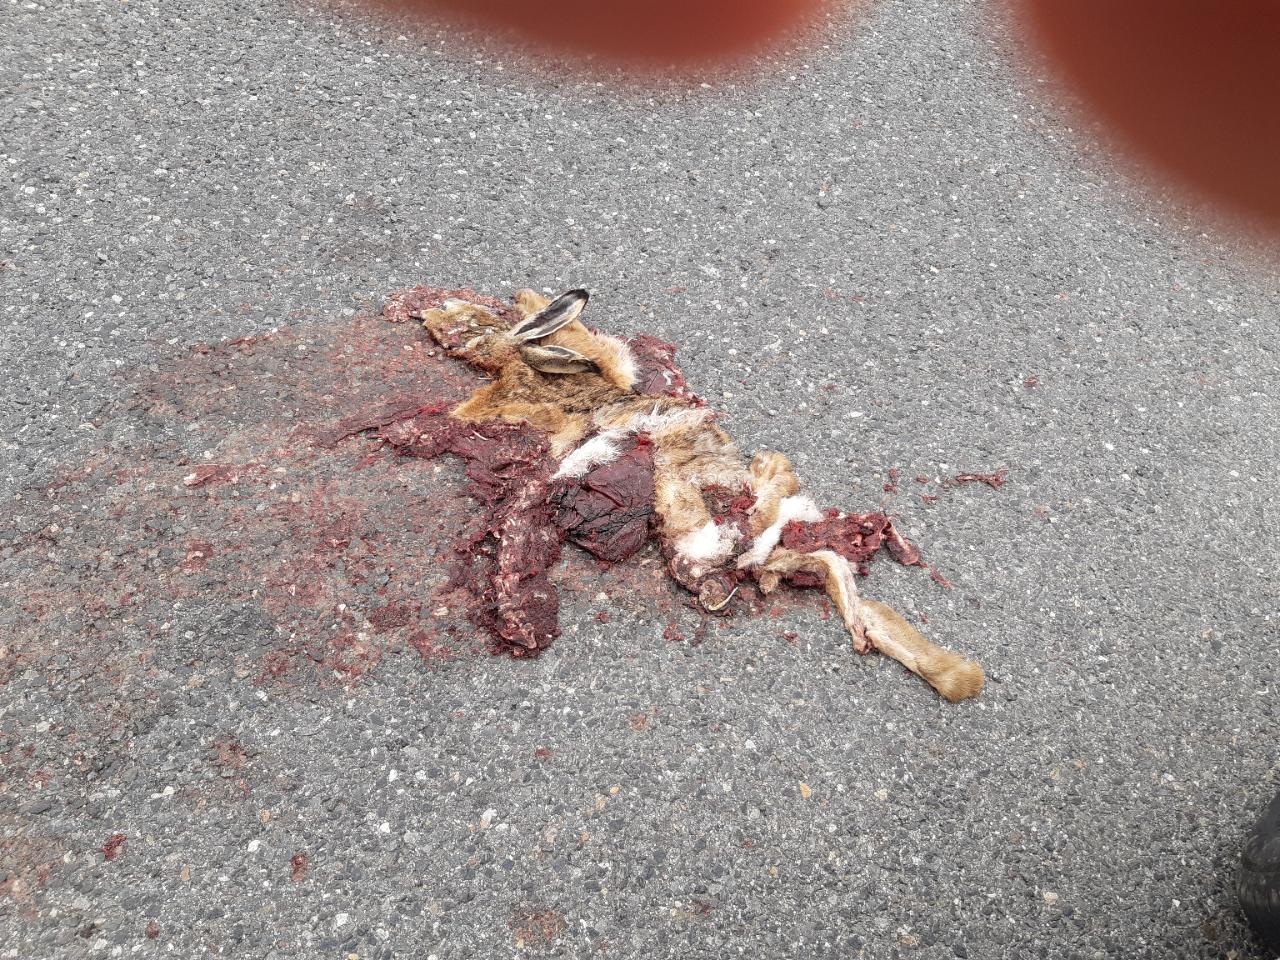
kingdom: Animalia
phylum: Chordata
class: Mammalia
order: Lagomorpha
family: Leporidae
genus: Lepus
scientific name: Lepus europaeus
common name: European hare
